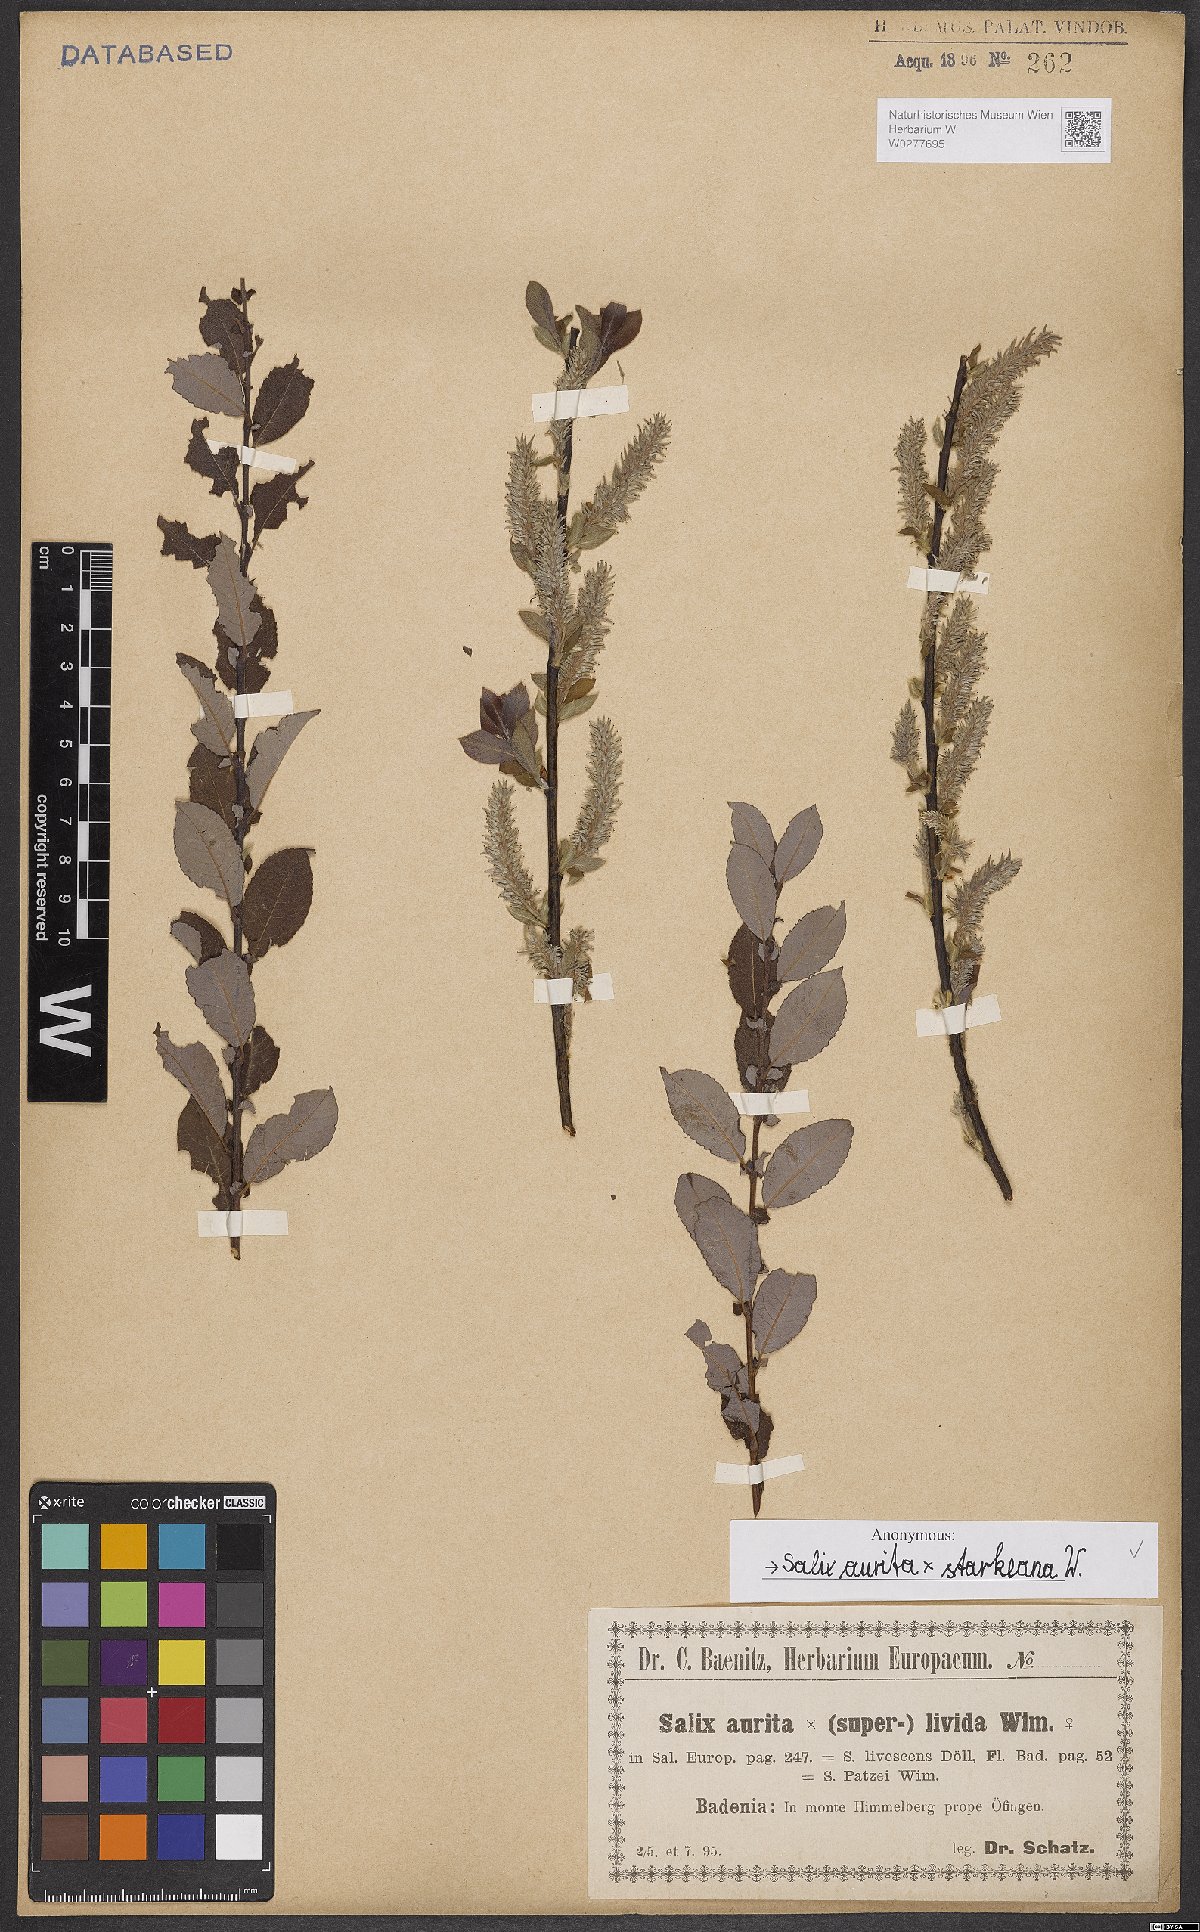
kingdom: Plantae
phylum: Tracheophyta
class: Magnoliopsida
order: Malpighiales
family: Salicaceae
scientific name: Salicaceae
